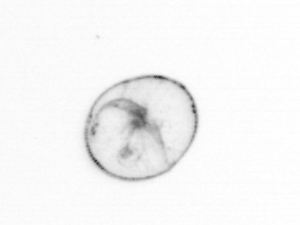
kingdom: Chromista
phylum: Myzozoa
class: Dinophyceae
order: Noctilucales
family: Noctilucaceae
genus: Noctiluca
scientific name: Noctiluca scintillans
